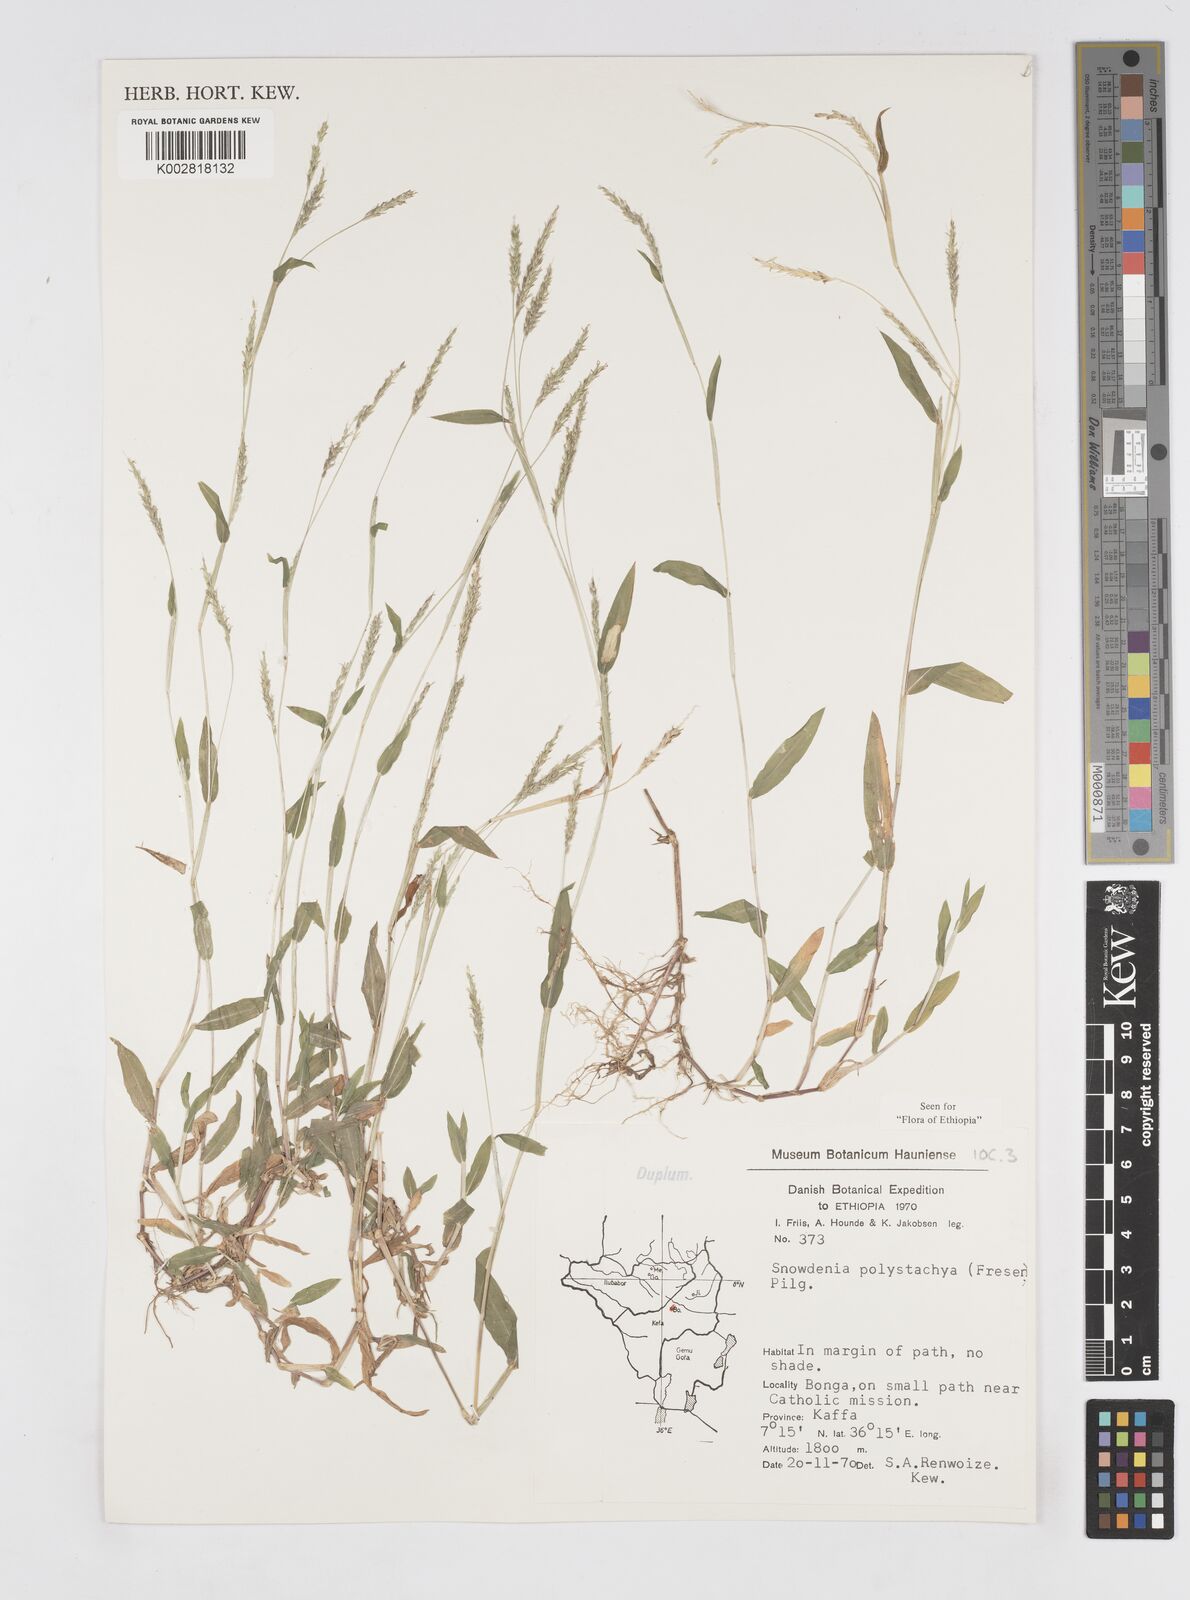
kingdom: Plantae
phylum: Tracheophyta
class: Liliopsida
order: Poales
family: Poaceae
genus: Snowdenia
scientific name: Snowdenia polystachya
